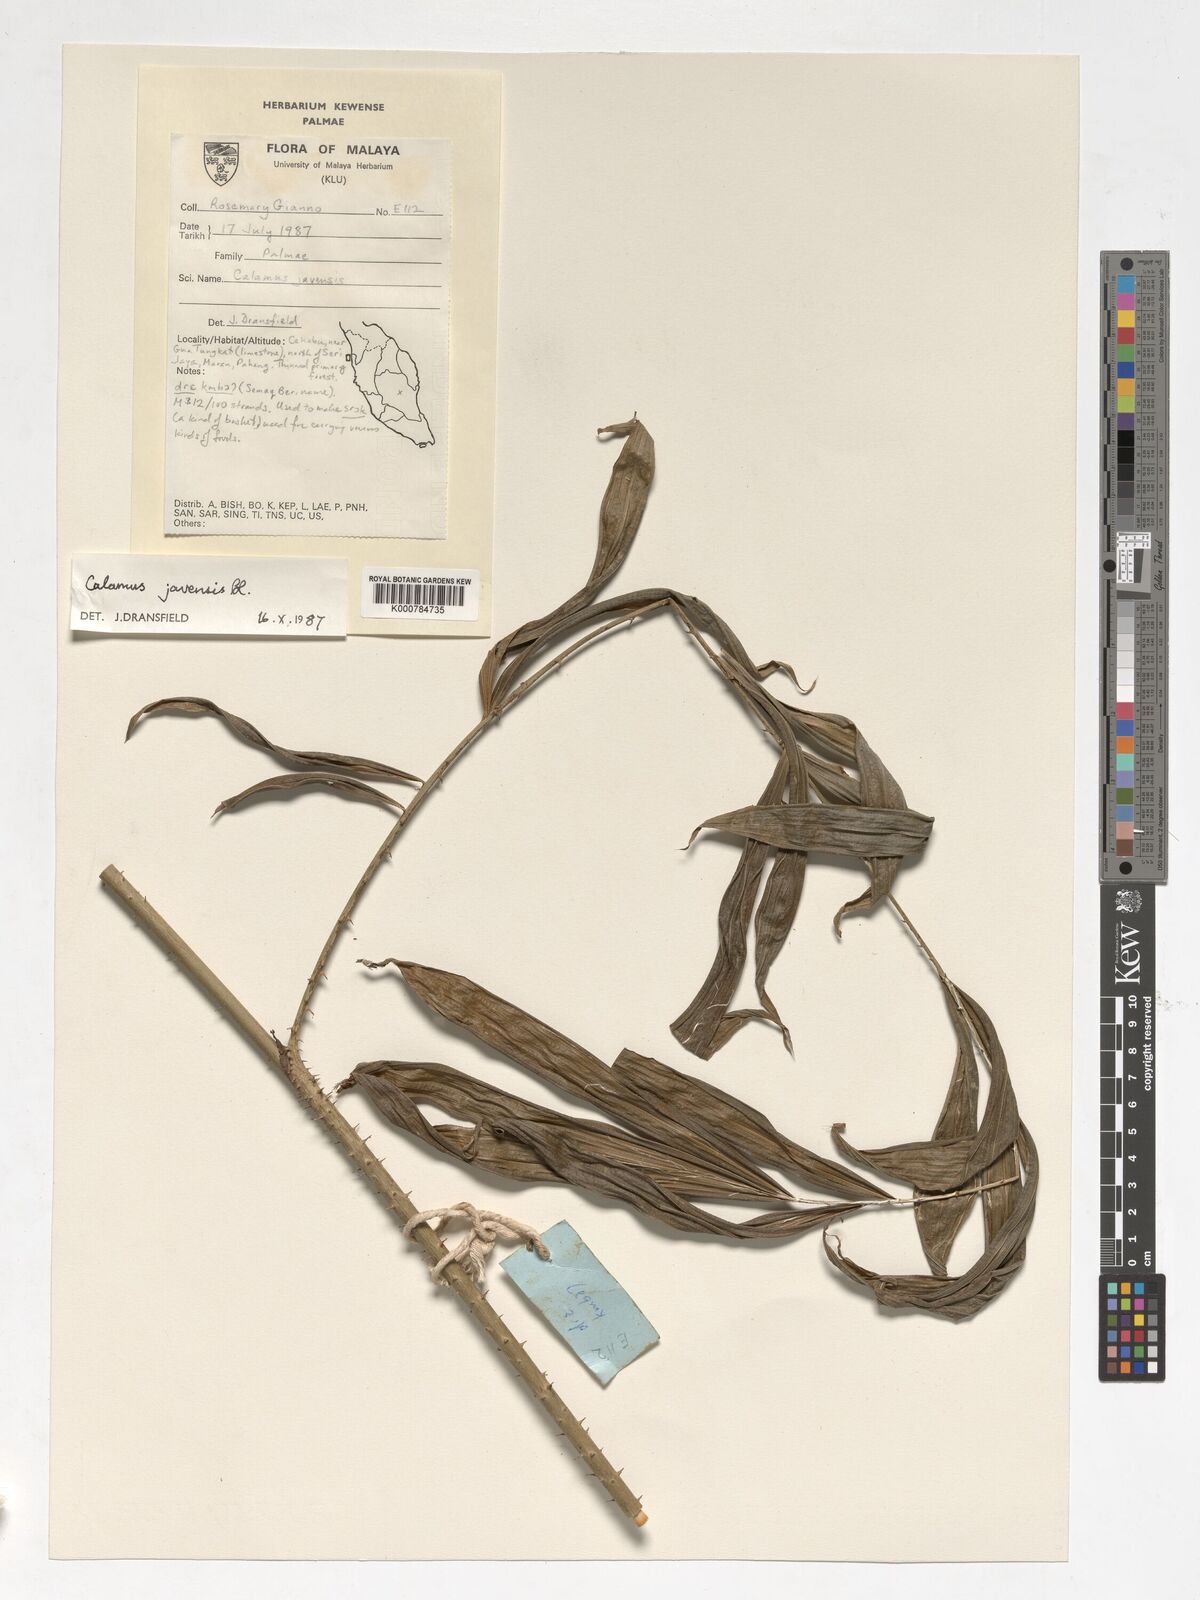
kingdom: Plantae
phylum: Tracheophyta
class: Liliopsida
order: Arecales
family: Arecaceae
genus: Calamus
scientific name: Calamus javensis
